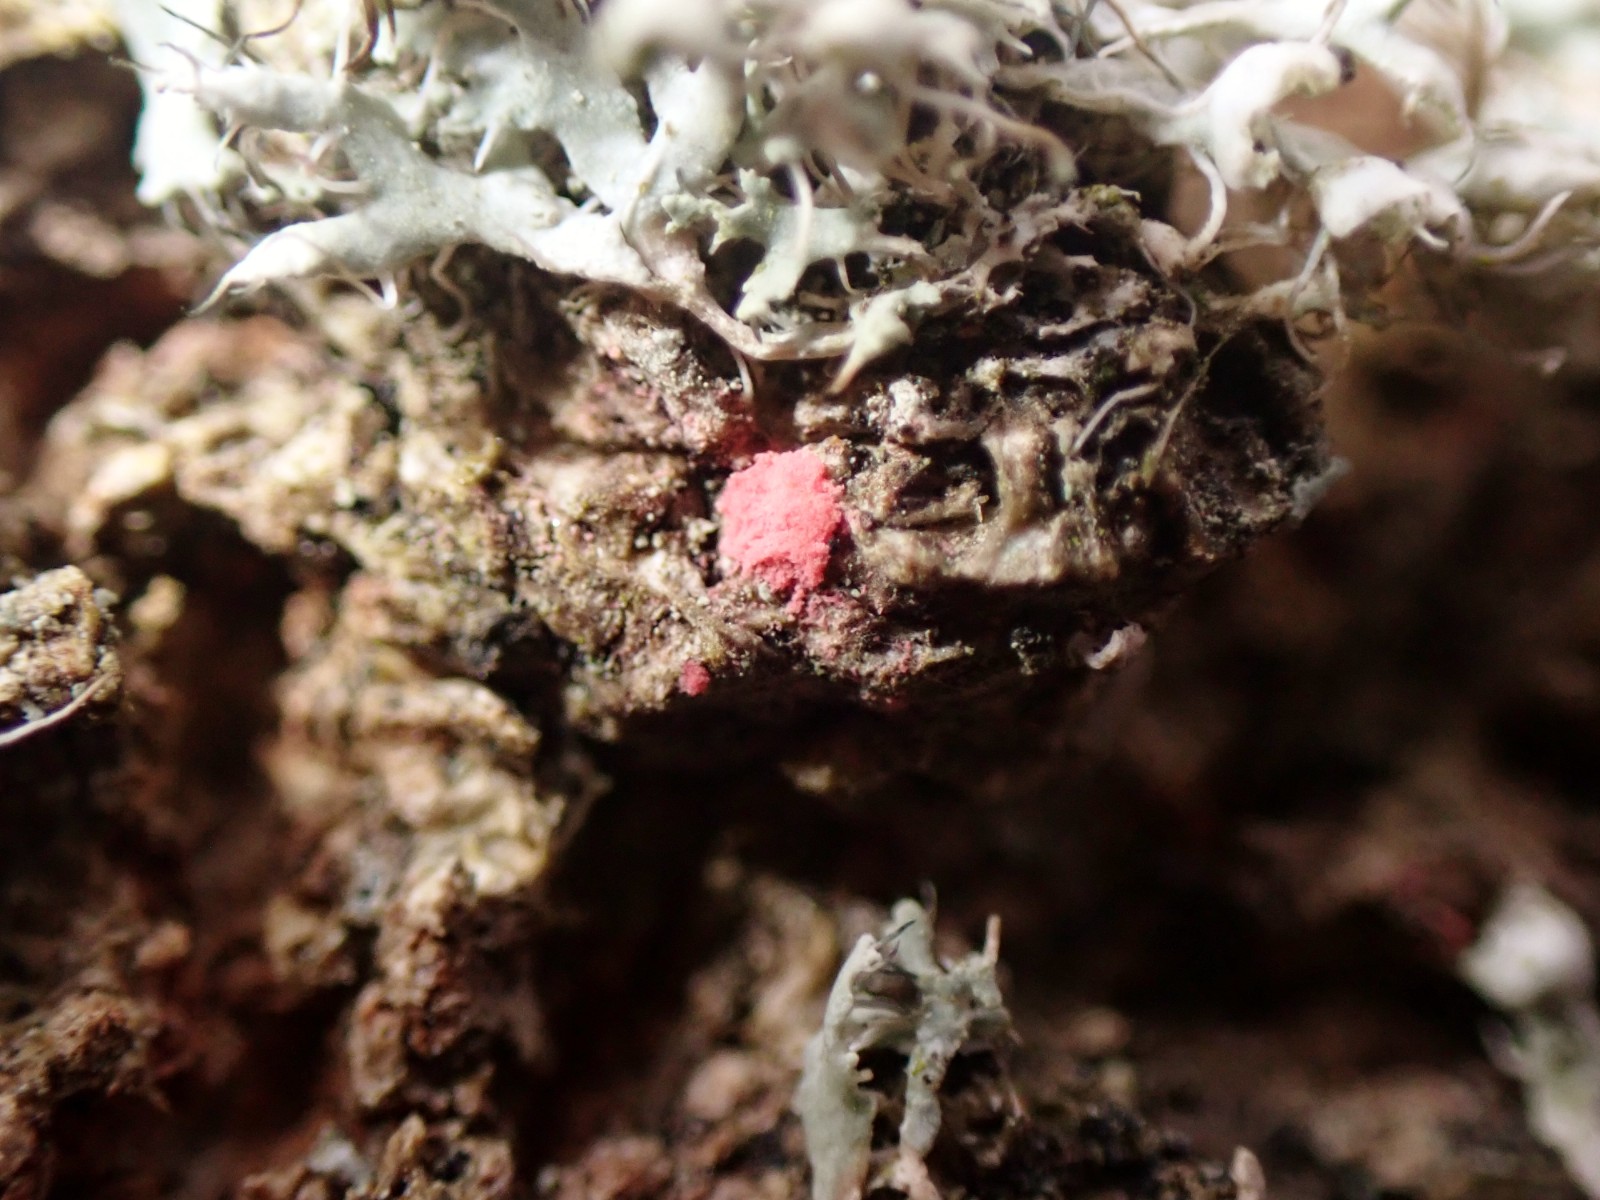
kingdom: Fungi
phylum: Ascomycota
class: Sordariomycetes
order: Hypocreales
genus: Illosporiopsis
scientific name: Illosporiopsis christiansenii
